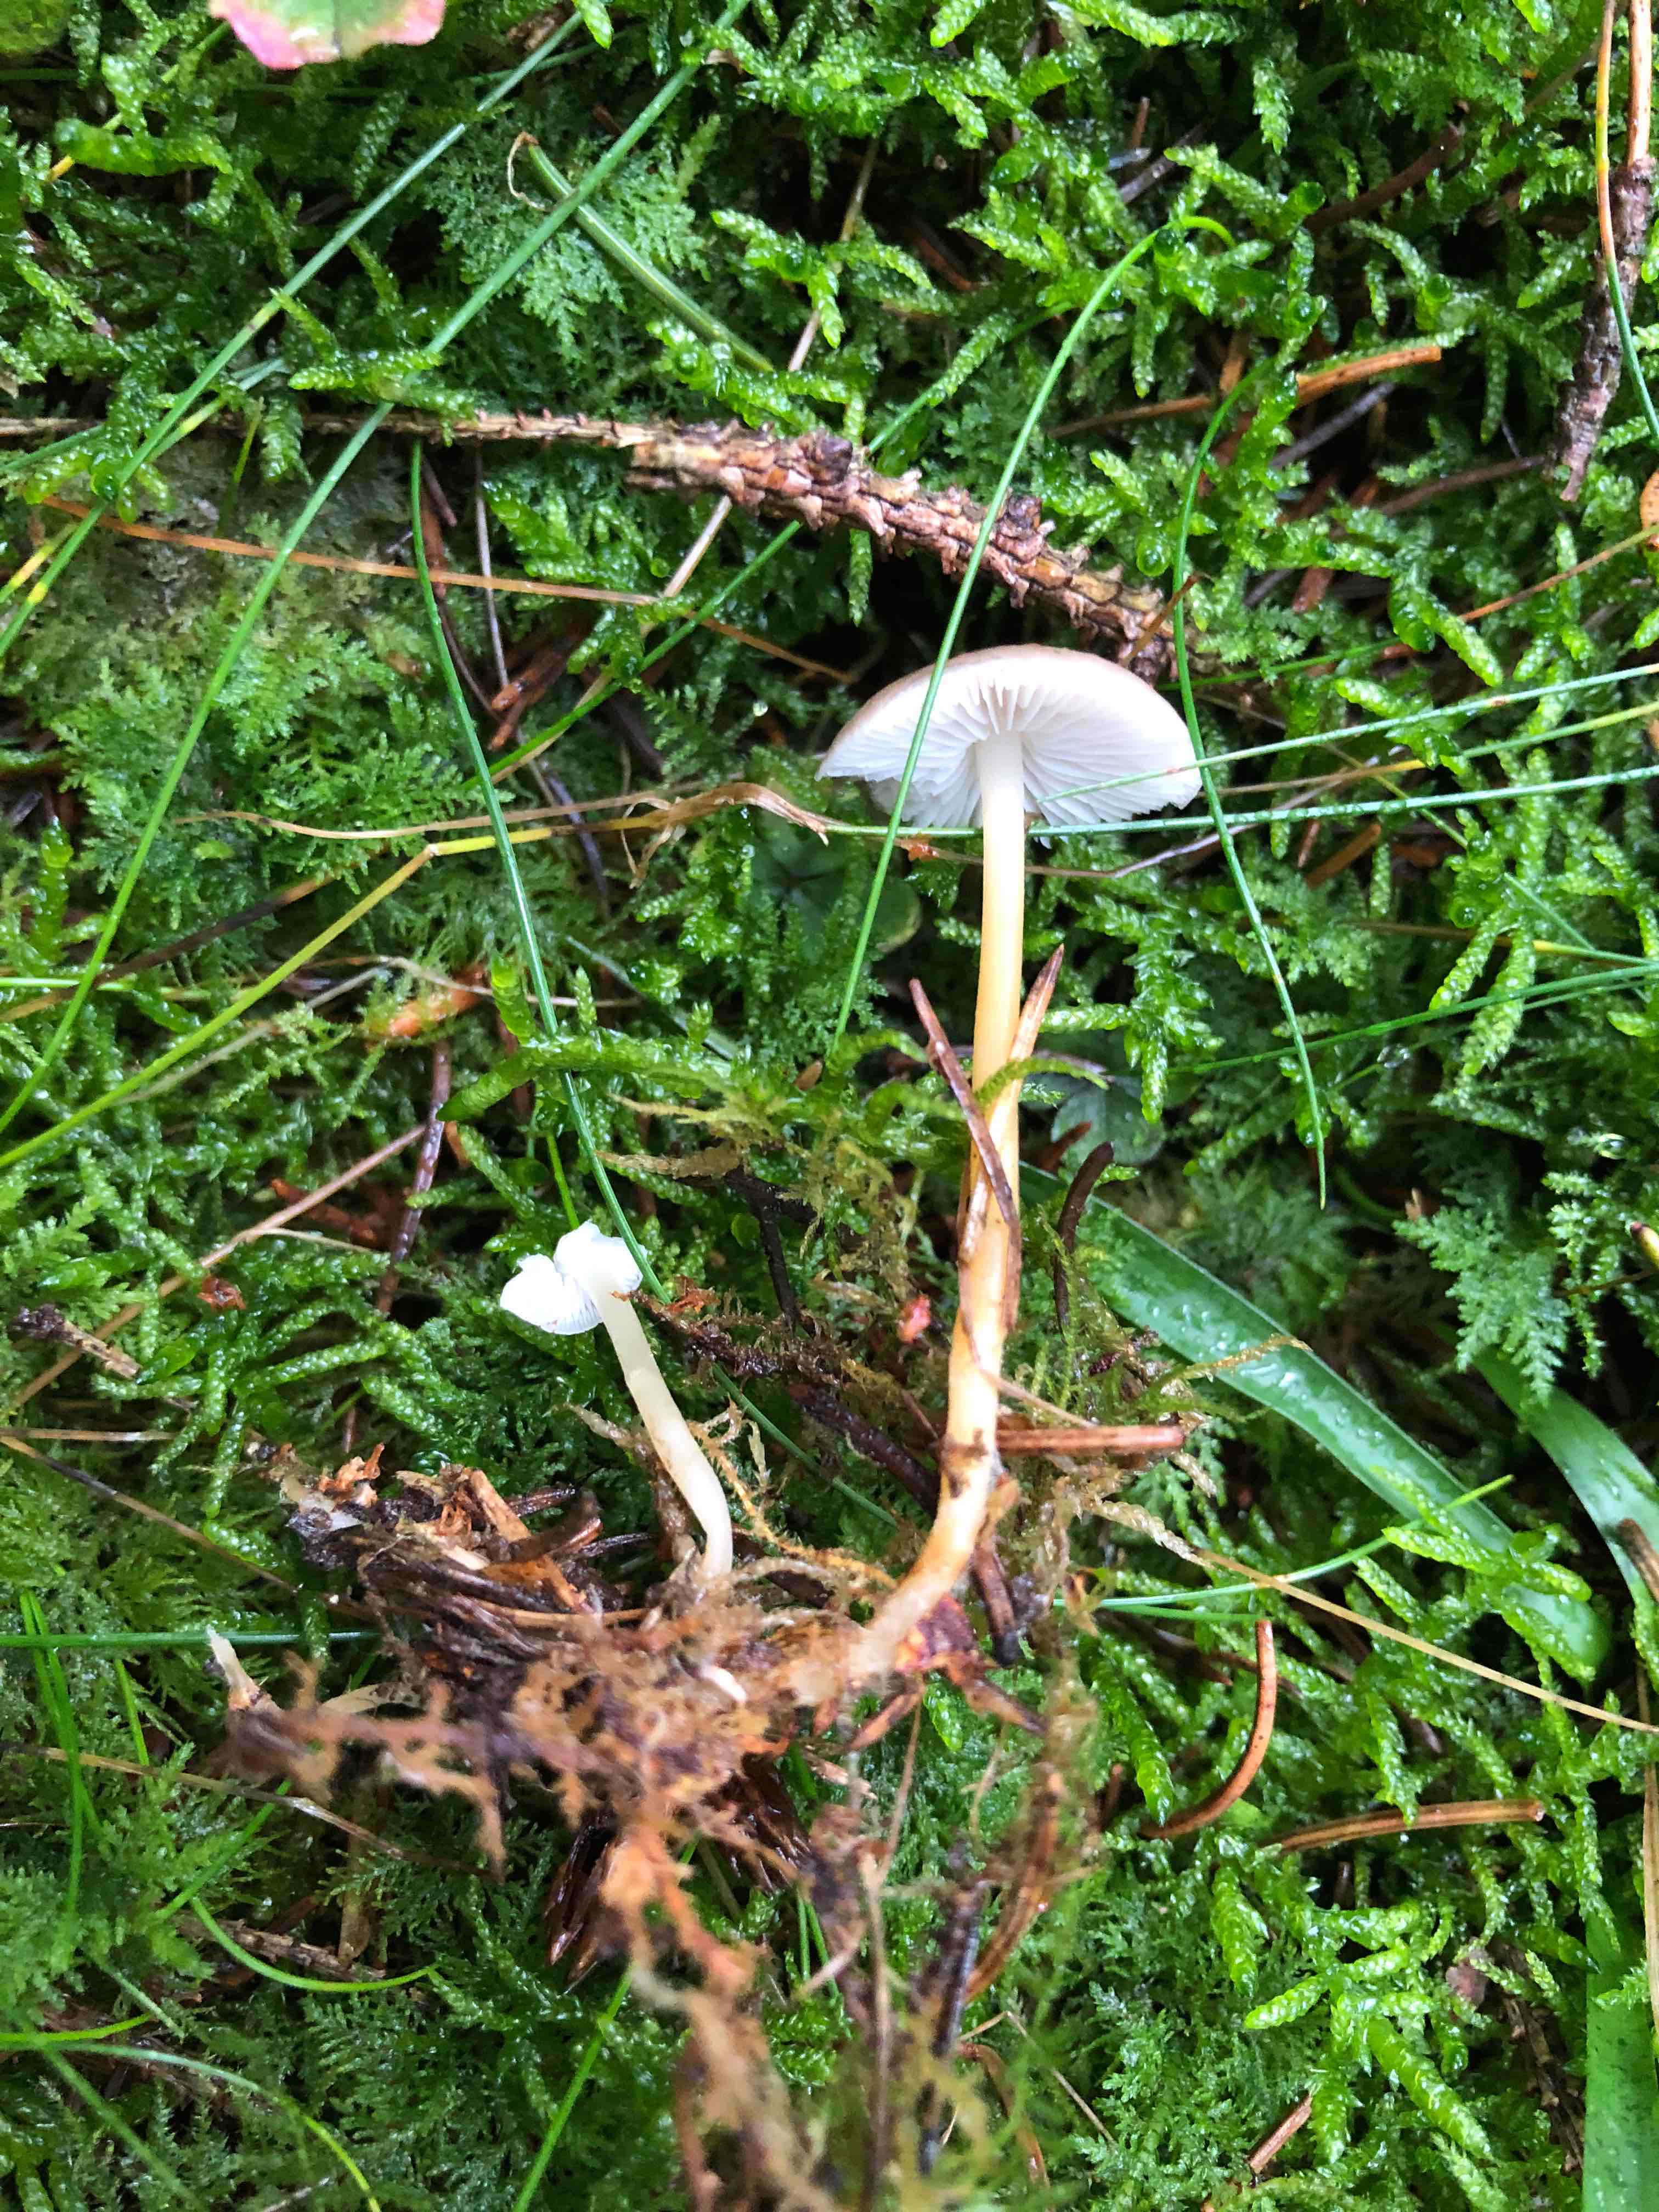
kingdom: Fungi
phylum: Basidiomycota
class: Agaricomycetes
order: Agaricales
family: Physalacriaceae
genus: Strobilurus
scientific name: Strobilurus esculentus
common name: gran-koglehat
